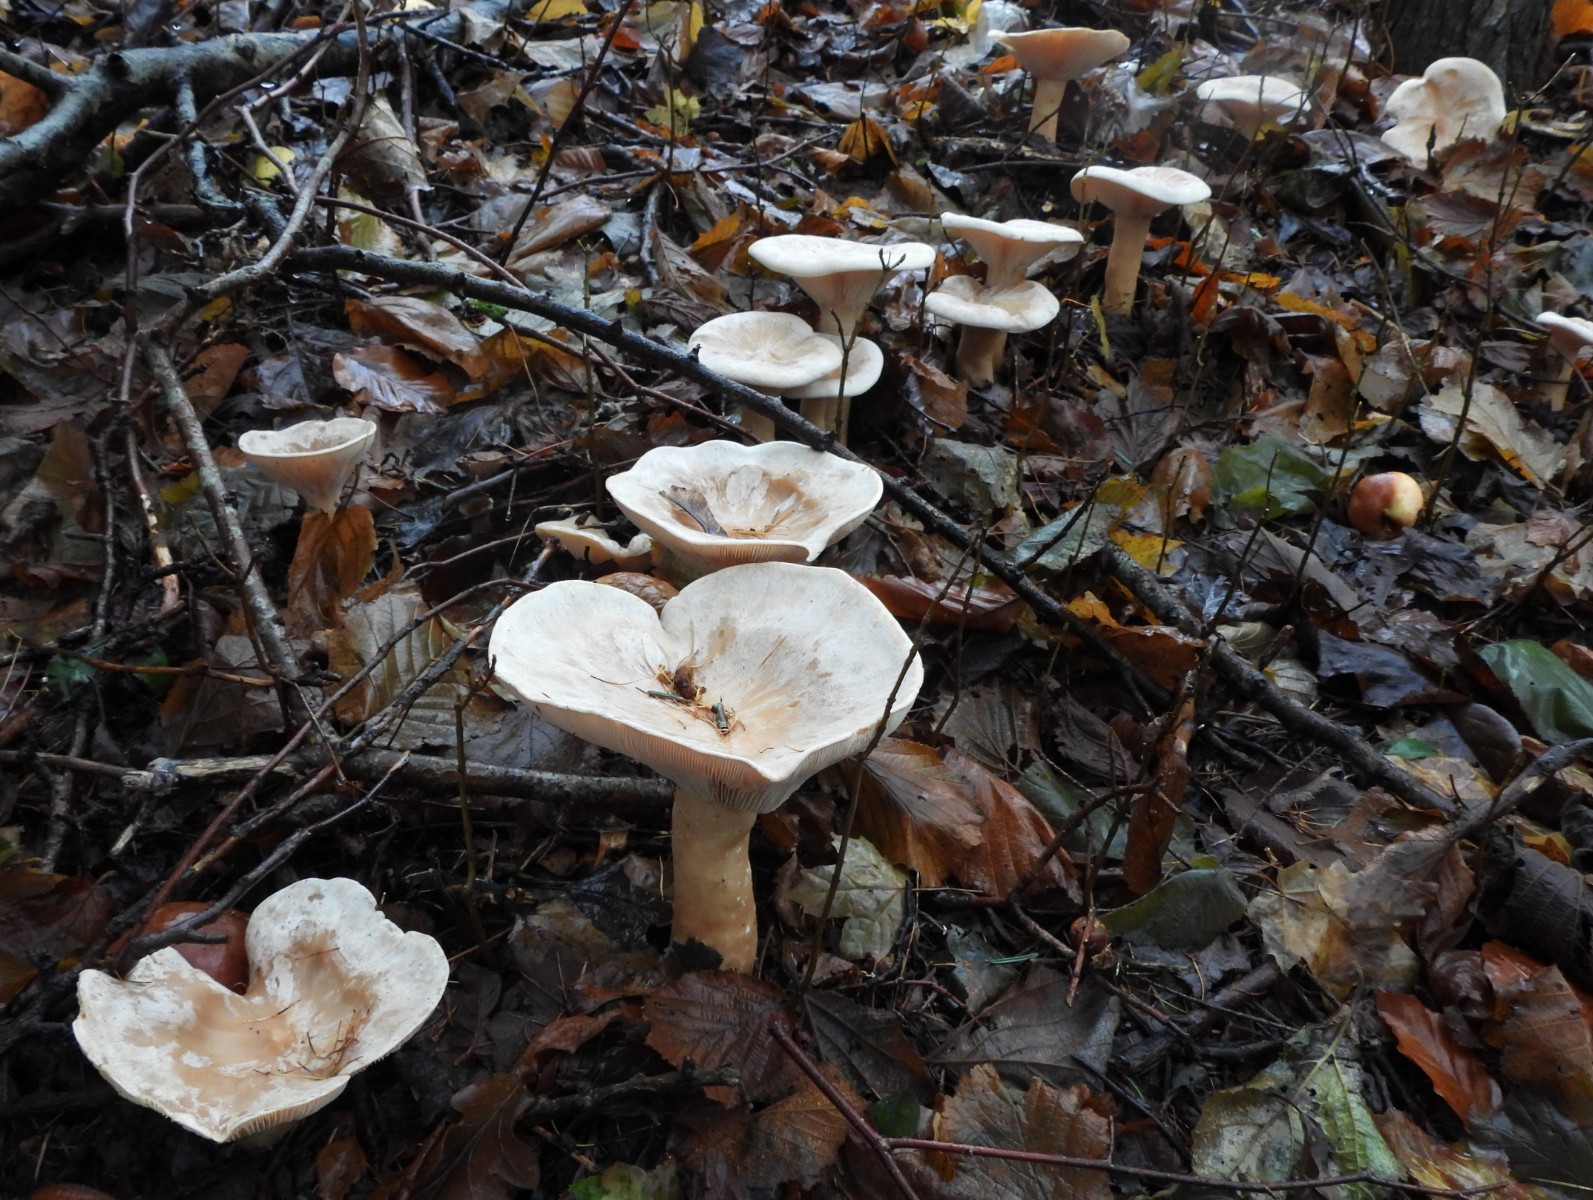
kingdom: Fungi
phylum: Basidiomycota
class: Agaricomycetes
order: Agaricales
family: Tricholomataceae
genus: Infundibulicybe
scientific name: Infundibulicybe geotropa
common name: stor tragthat
